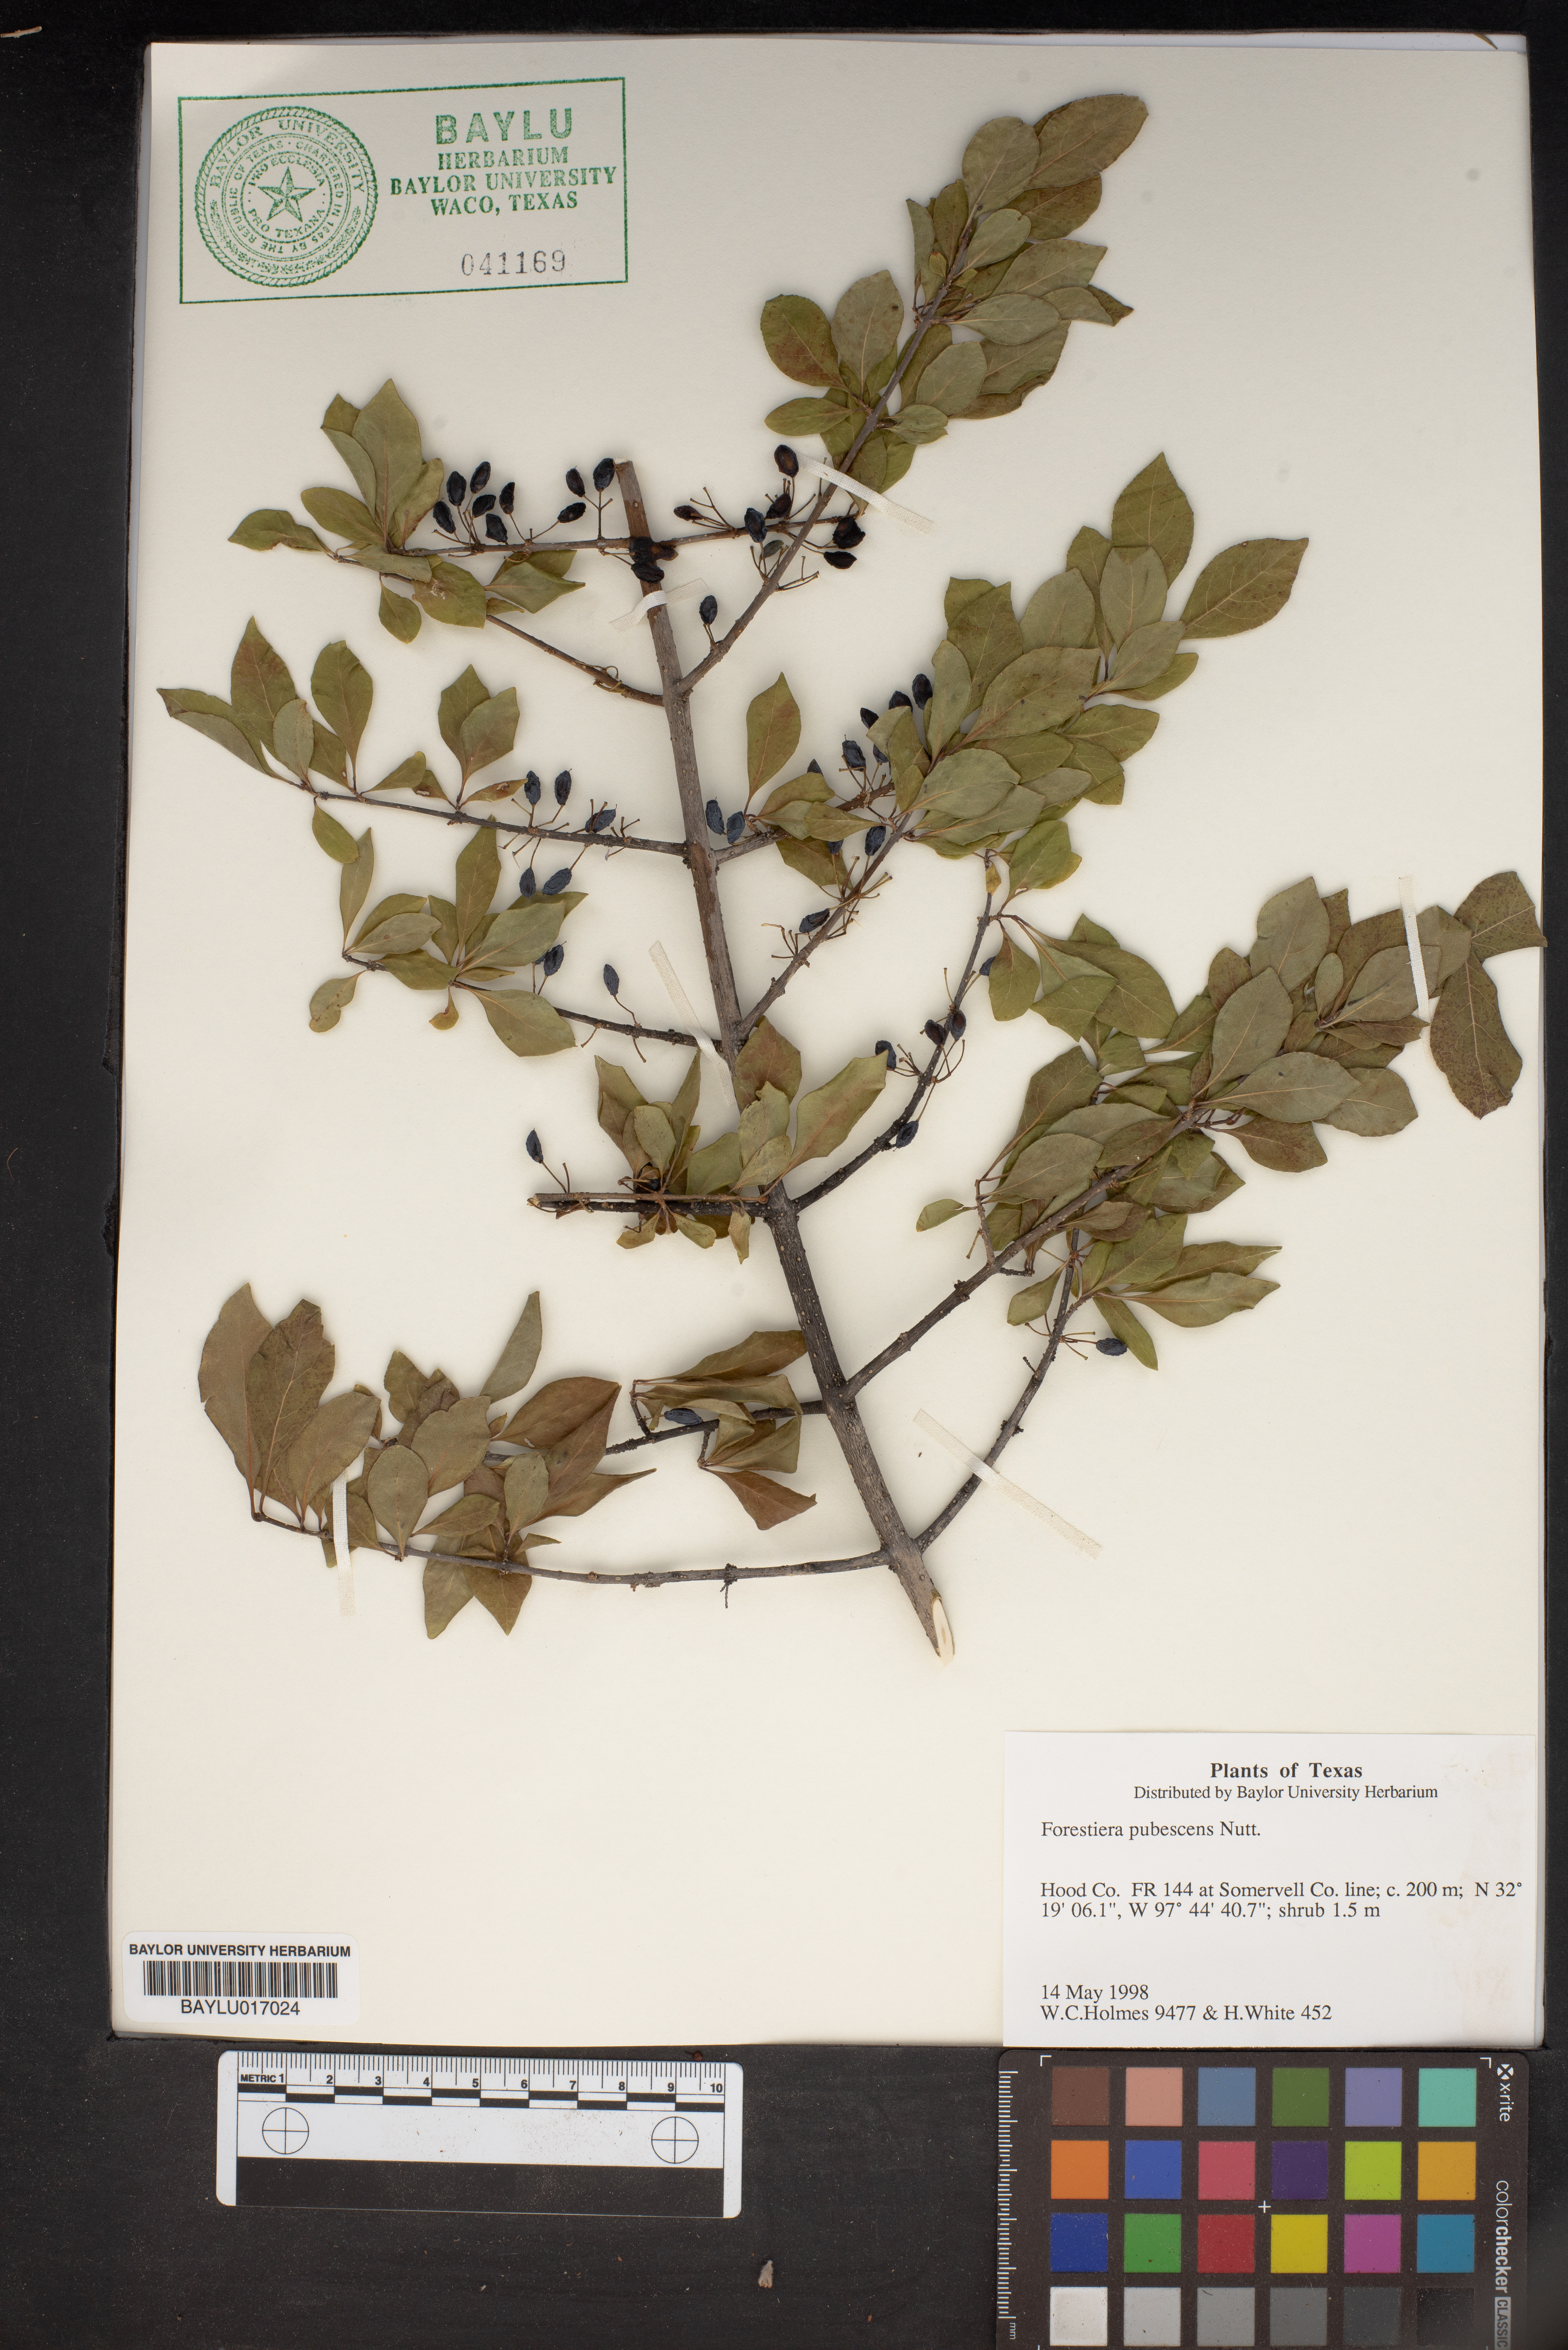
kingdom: Plantae
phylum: Tracheophyta
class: Magnoliopsida
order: Lamiales
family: Oleaceae
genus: Forestiera
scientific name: Forestiera pubescens
